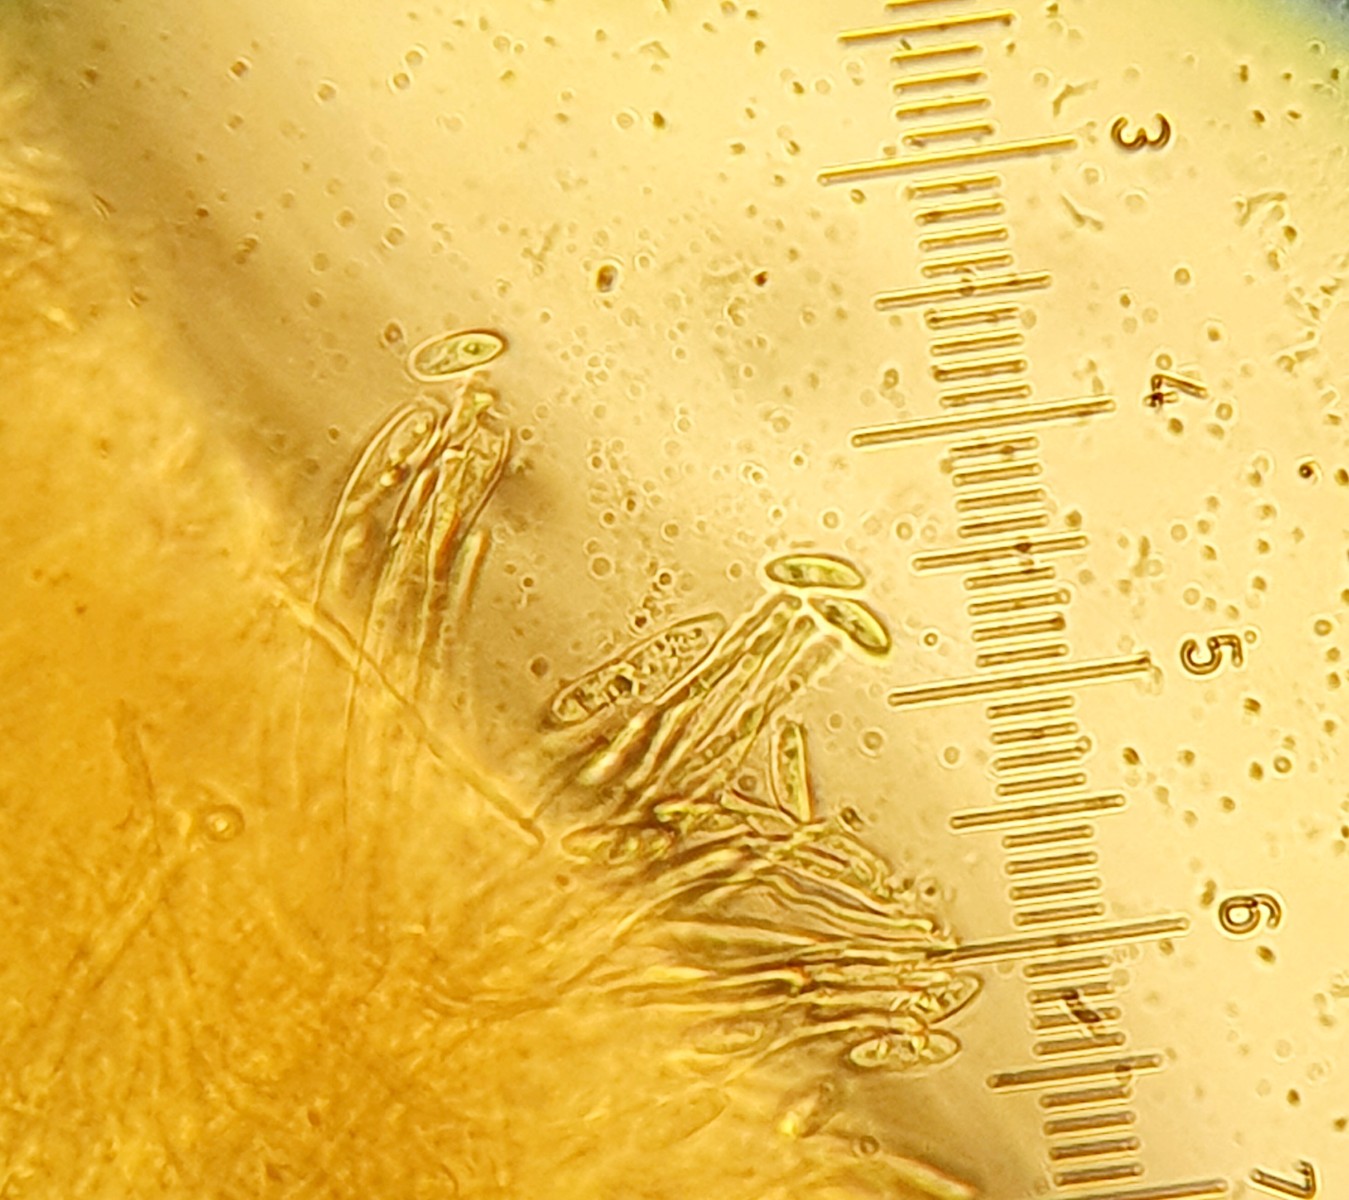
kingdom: Fungi
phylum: Ascomycota
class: Leotiomycetes
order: Helotiales
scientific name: Helotiales
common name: stilkskiveordenen
